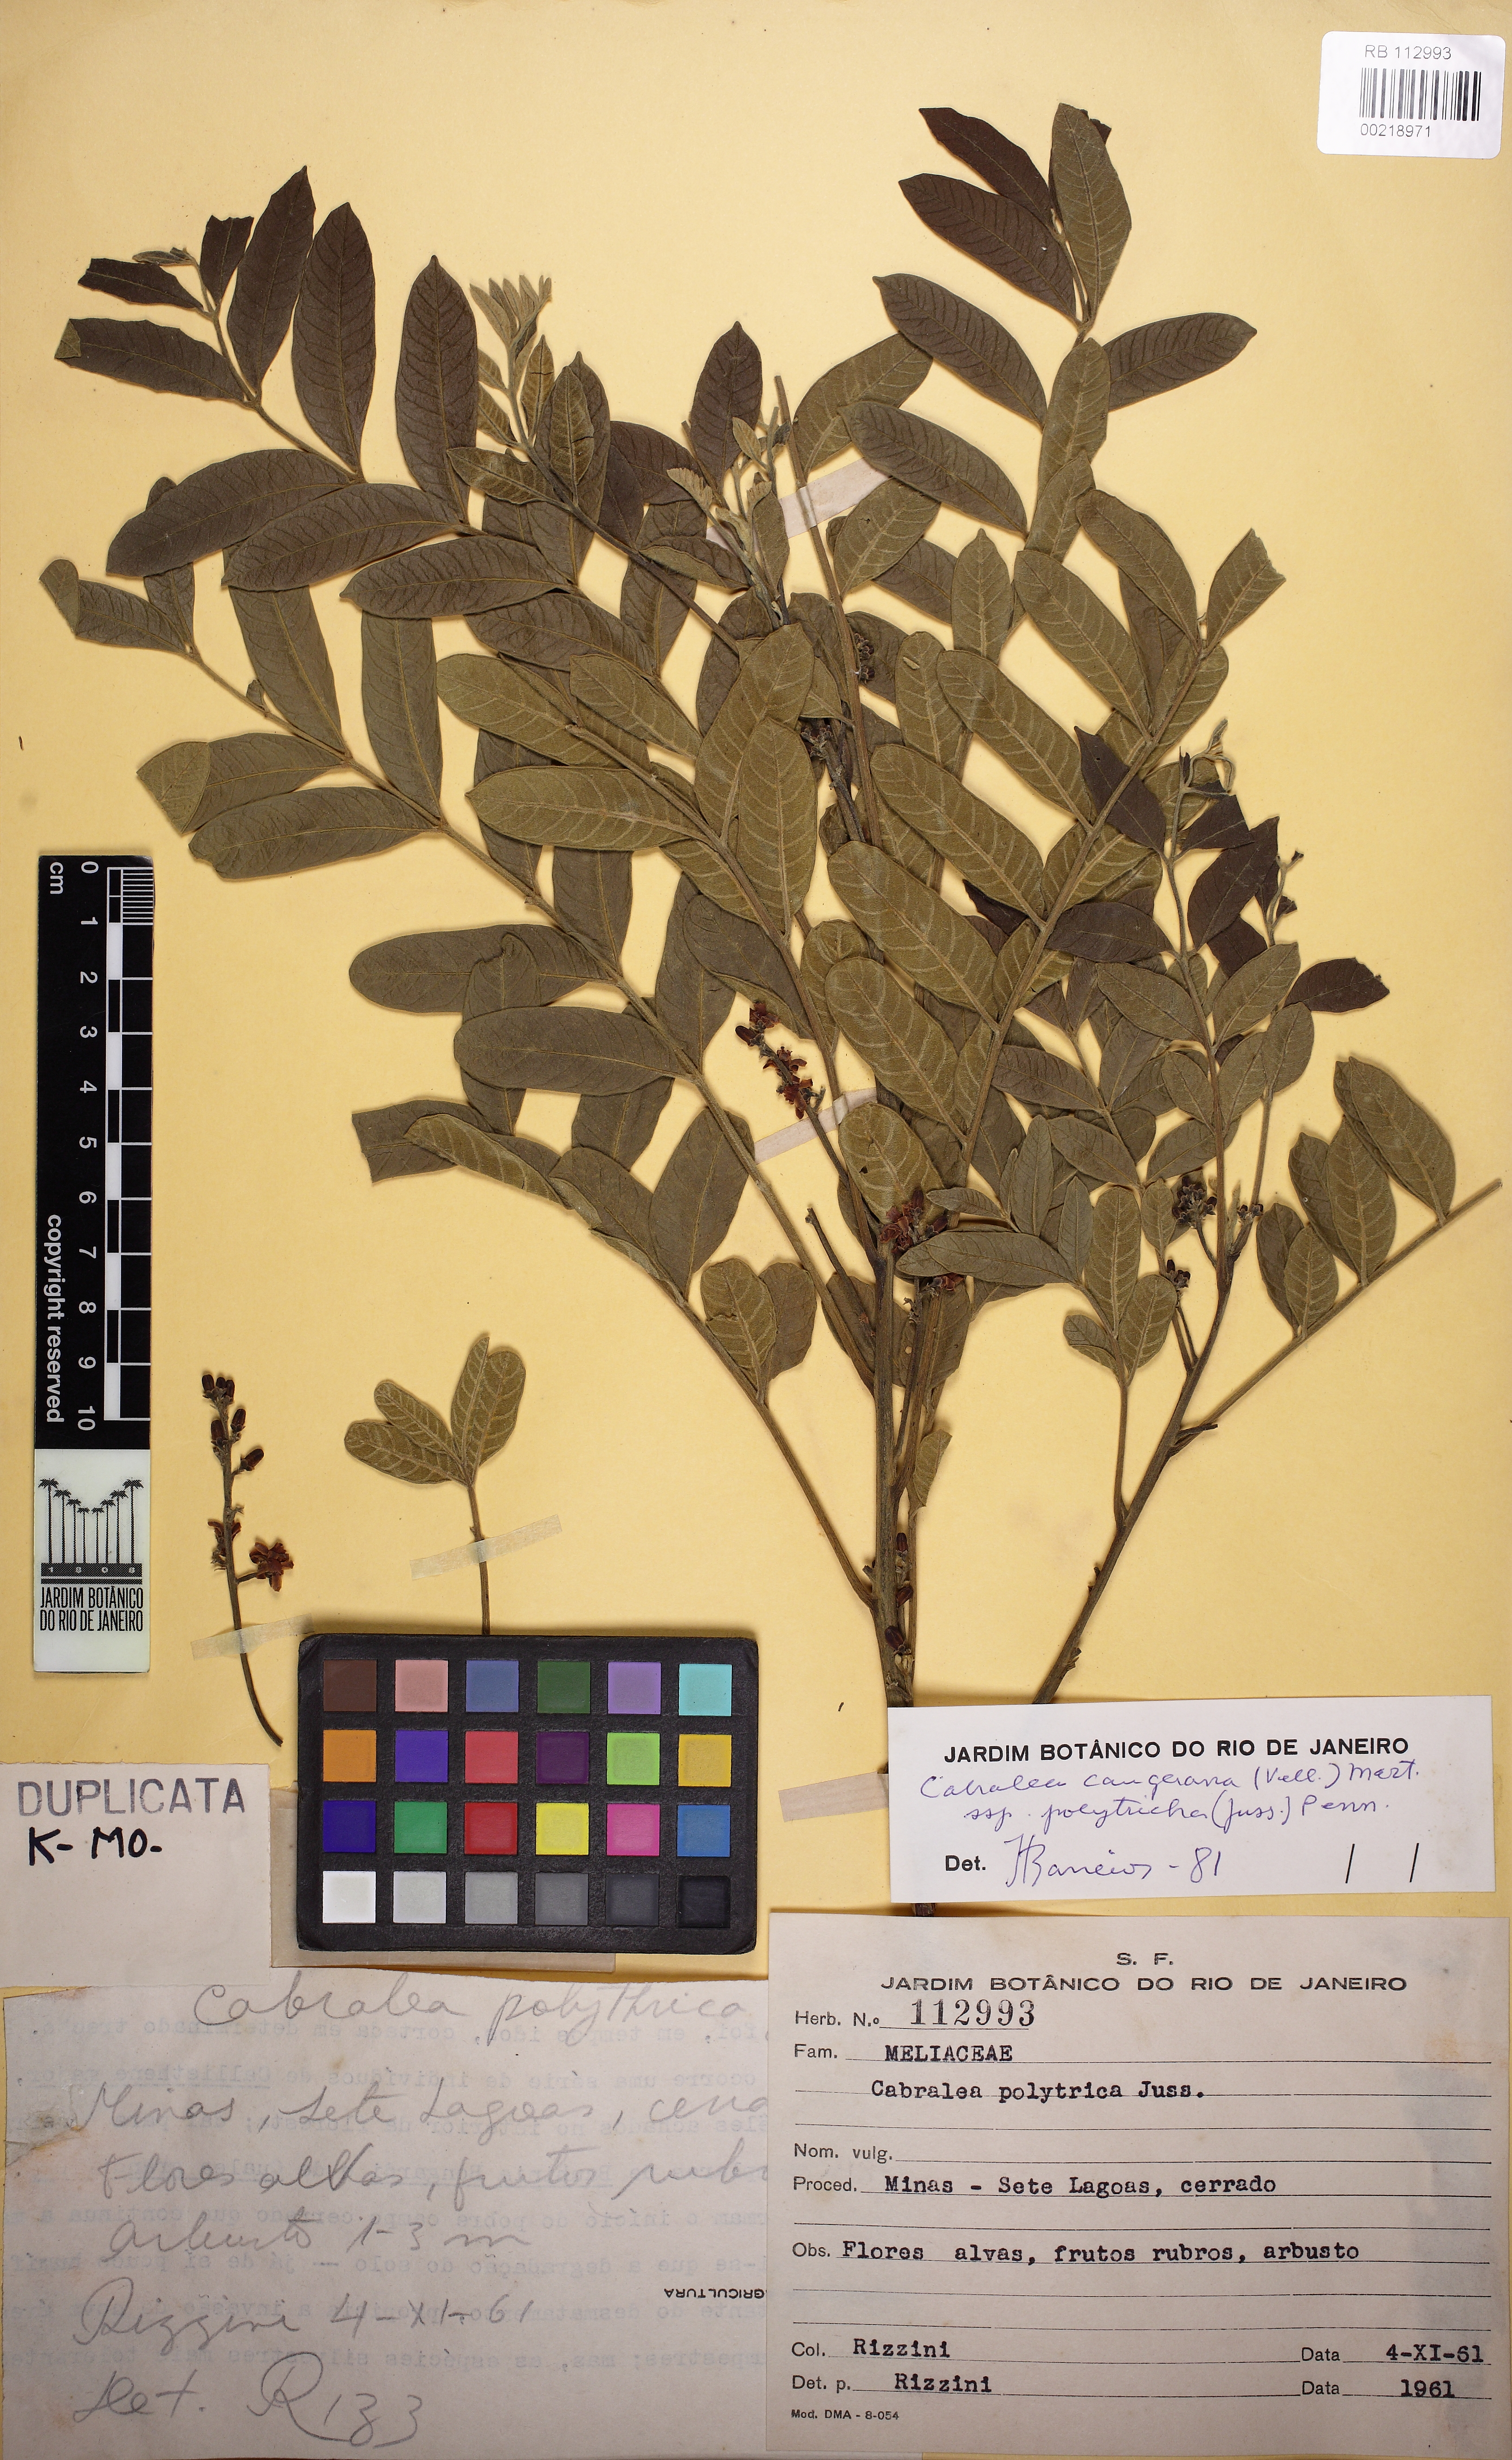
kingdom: Plantae
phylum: Tracheophyta
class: Magnoliopsida
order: Sapindales
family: Meliaceae
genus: Cabralea
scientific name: Cabralea canjerana
